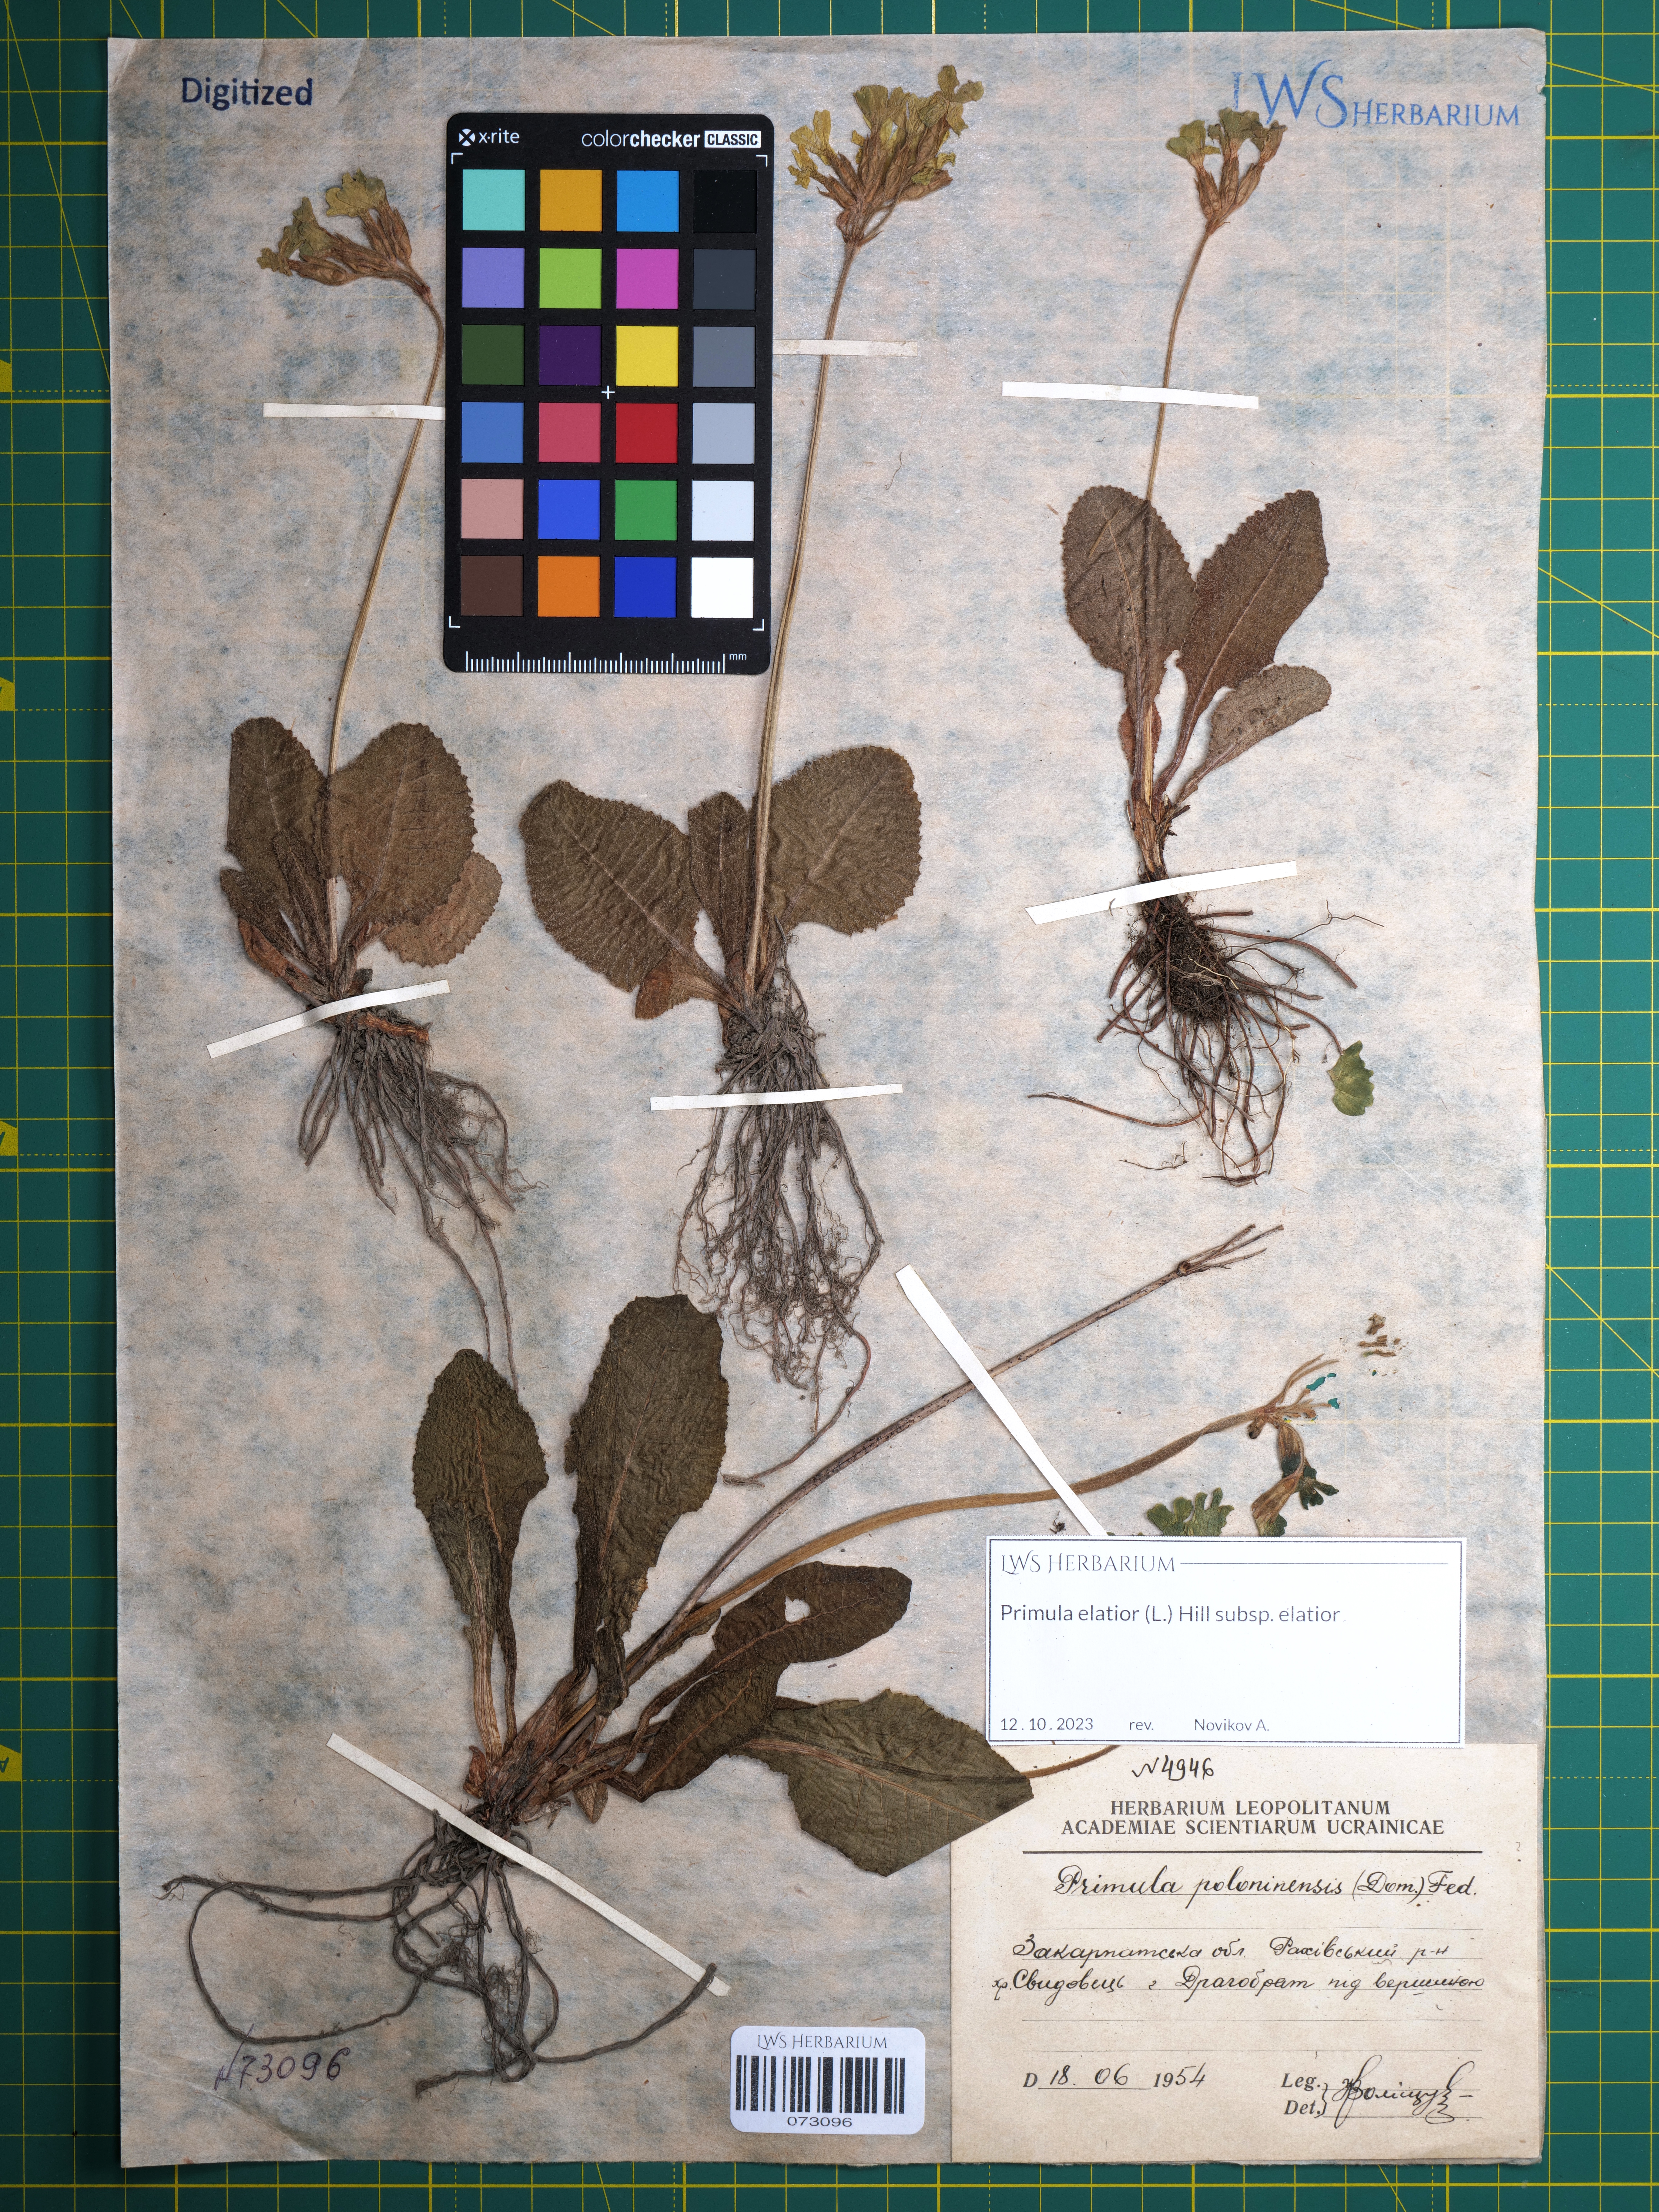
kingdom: Plantae
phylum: Tracheophyta
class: Magnoliopsida
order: Ericales
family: Primulaceae
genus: Primula
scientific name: Primula elatior
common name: Oxlip
